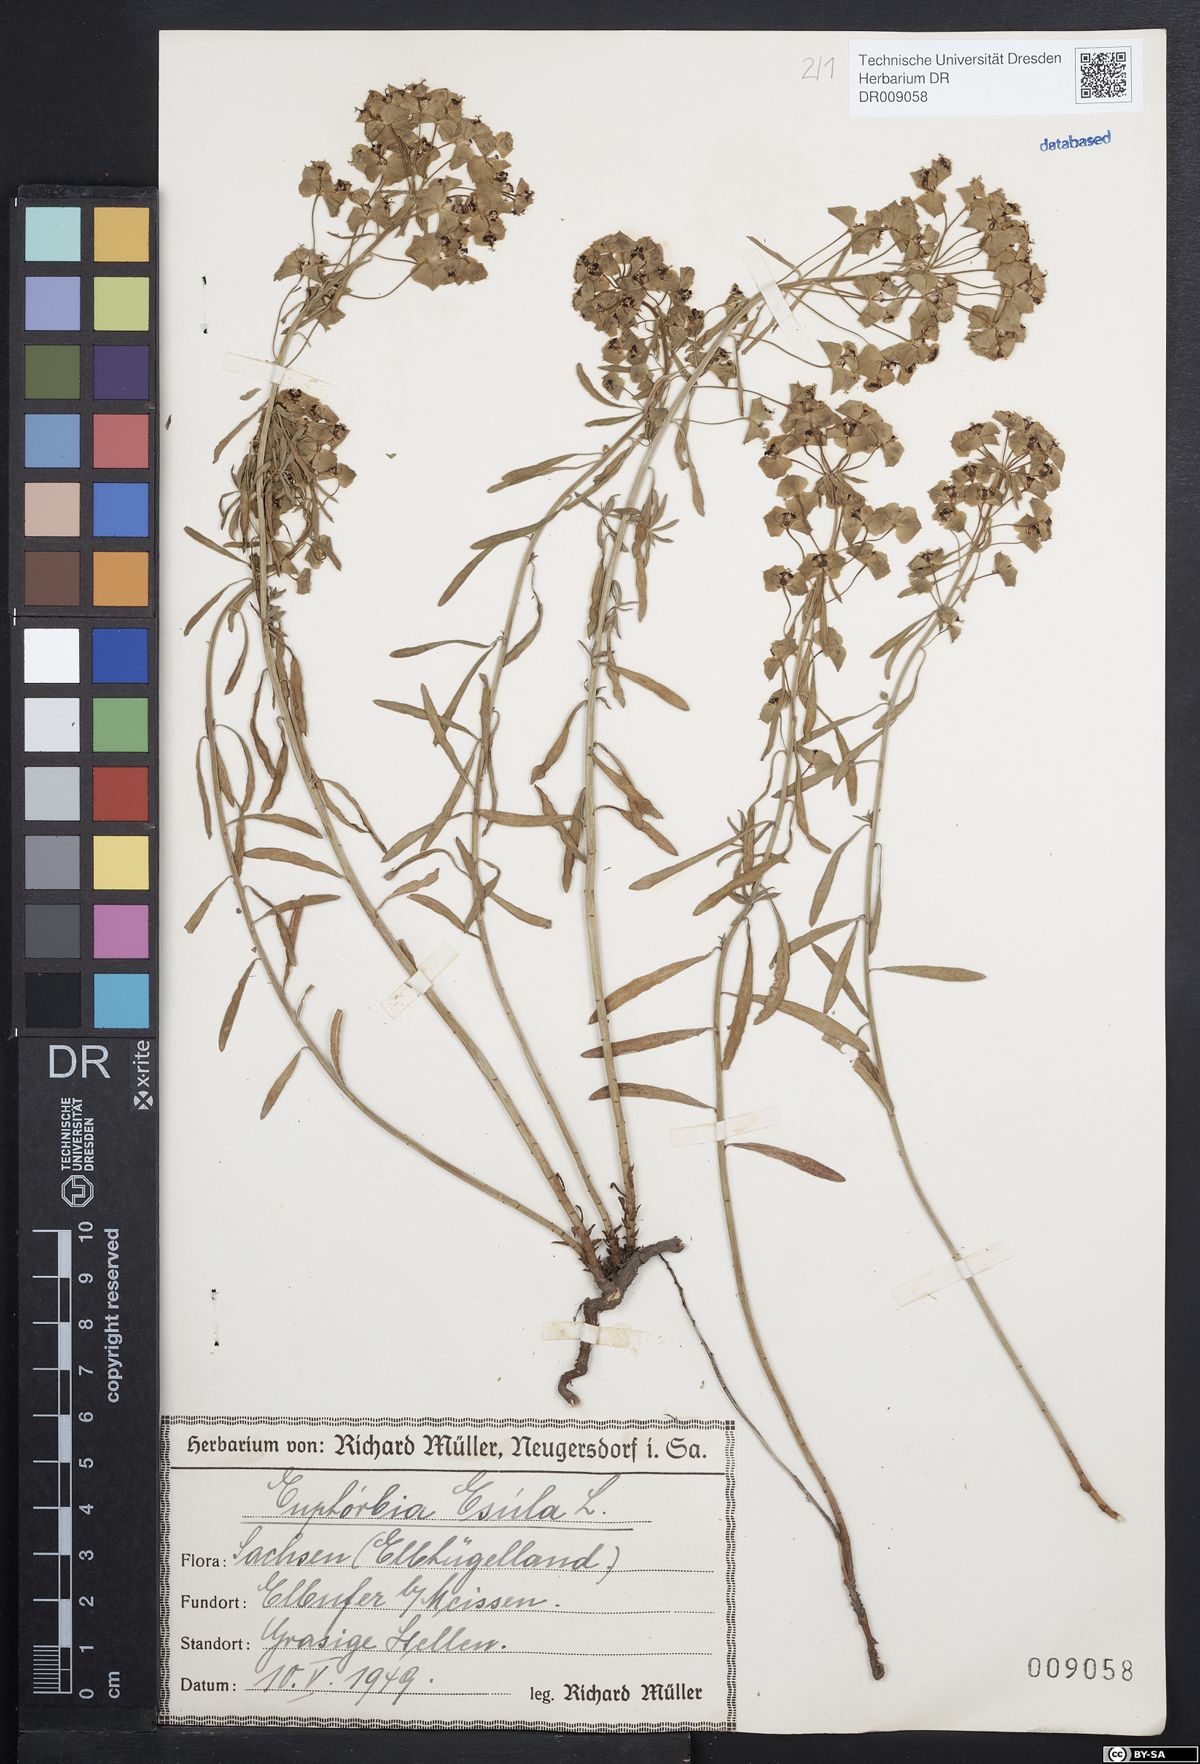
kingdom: Plantae
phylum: Tracheophyta
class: Magnoliopsida
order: Malpighiales
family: Euphorbiaceae
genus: Euphorbia
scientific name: Euphorbia esula
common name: Leafy spurge
